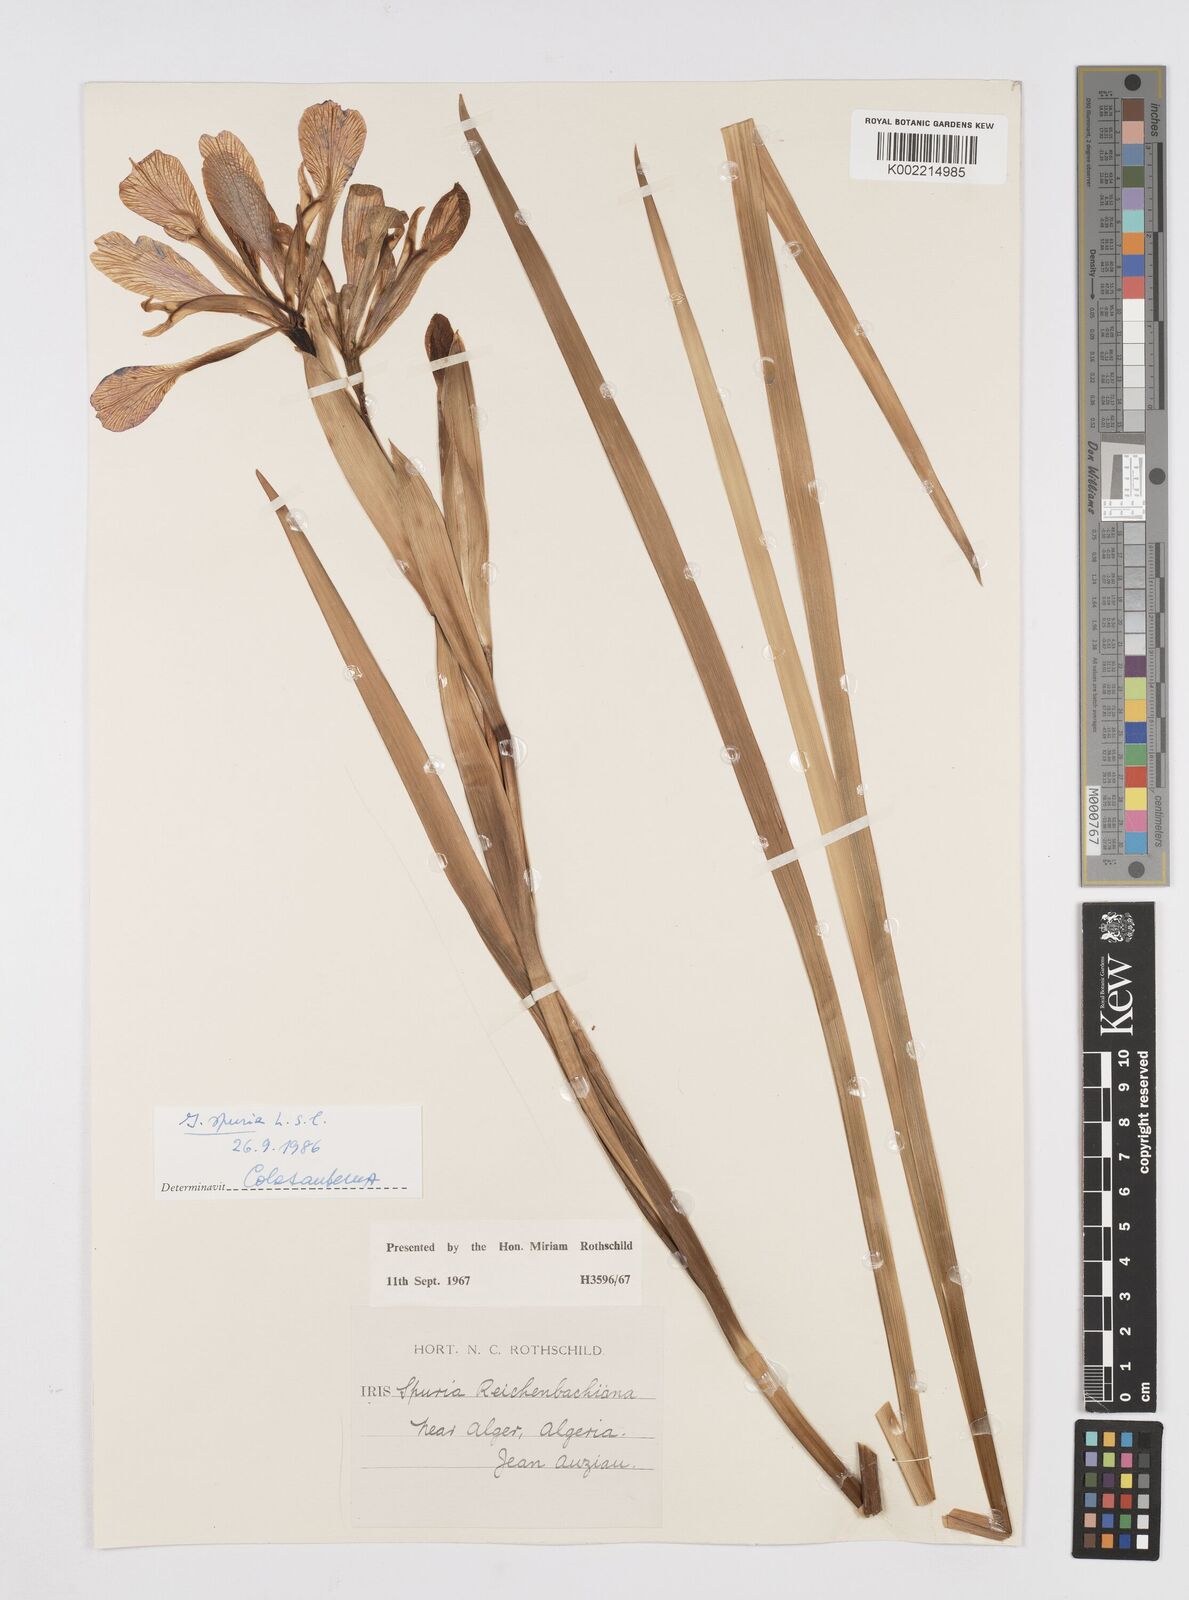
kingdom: Plantae
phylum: Tracheophyta
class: Liliopsida
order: Asparagales
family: Iridaceae
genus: Iris
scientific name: Iris spuria
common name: Blue iris
